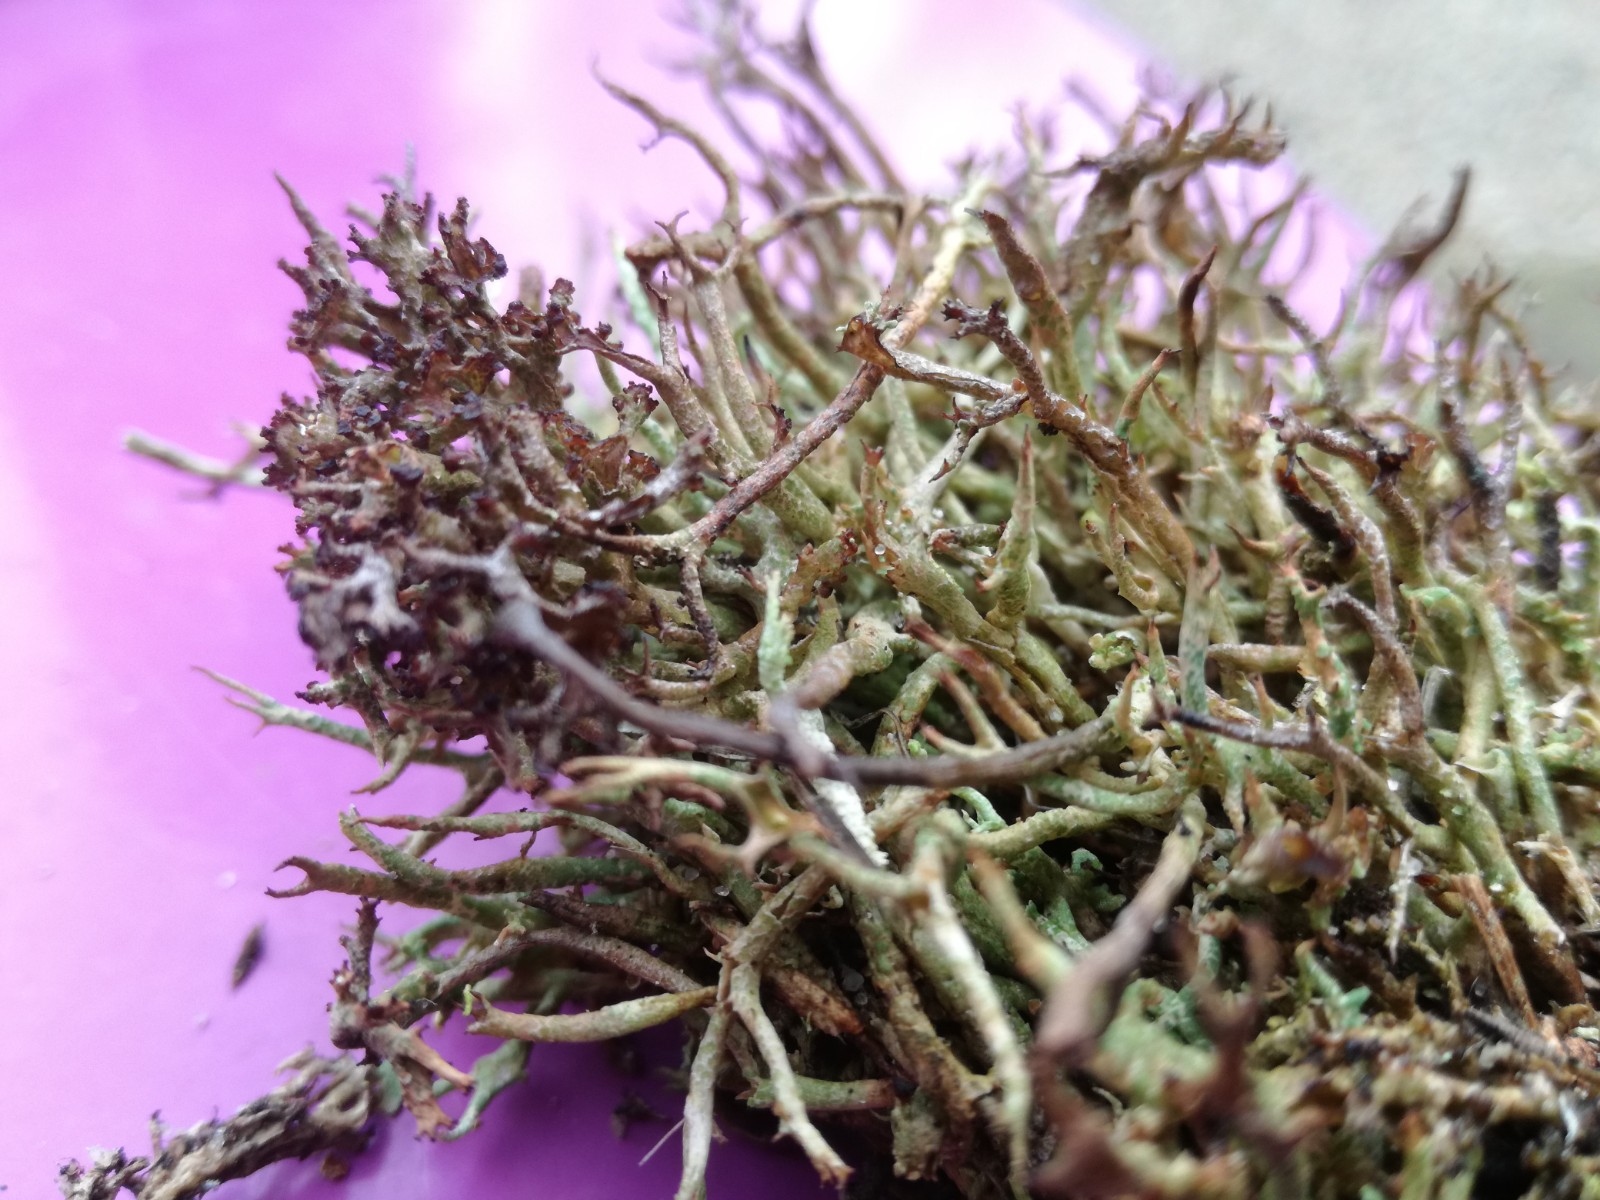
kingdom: Fungi
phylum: Ascomycota
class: Lecanoromycetes
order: Lecanorales
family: Cladoniaceae
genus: Cladonia
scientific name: Cladonia furcata
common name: kløftet bægerlav
